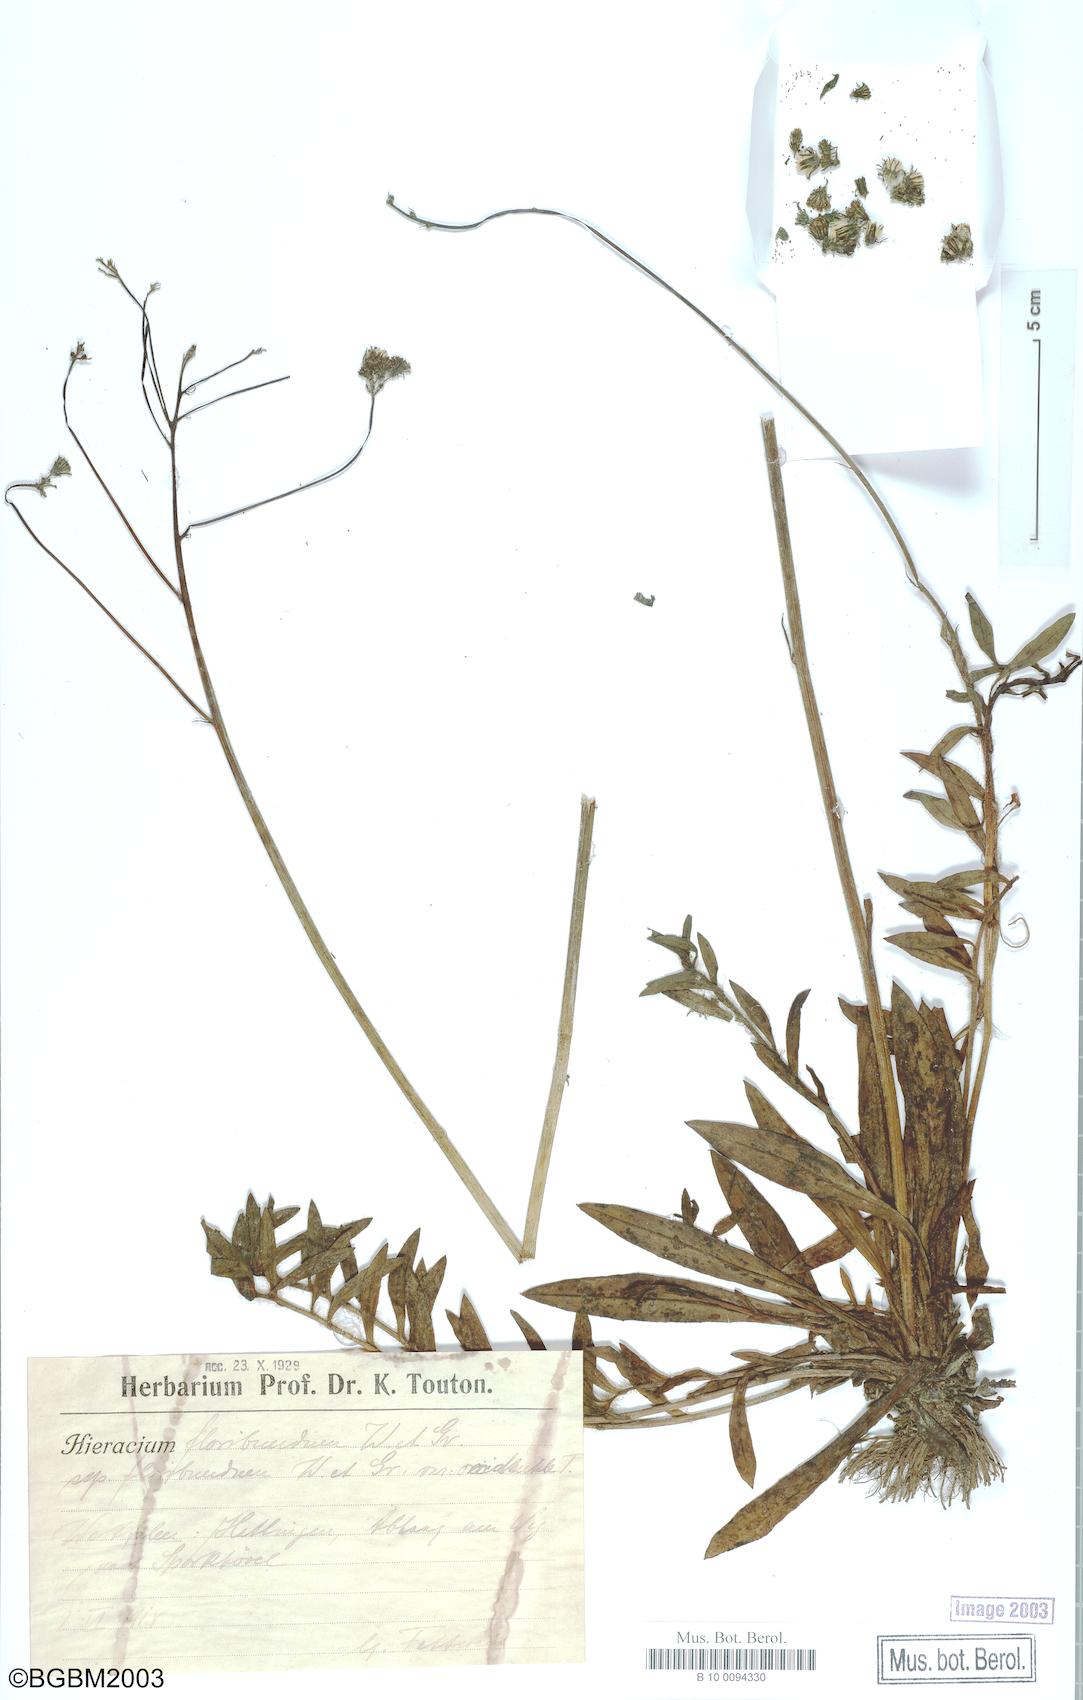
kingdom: Plantae
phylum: Tracheophyta
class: Magnoliopsida
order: Asterales
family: Asteraceae
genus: Hieracium
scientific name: Hieracium floribundum
